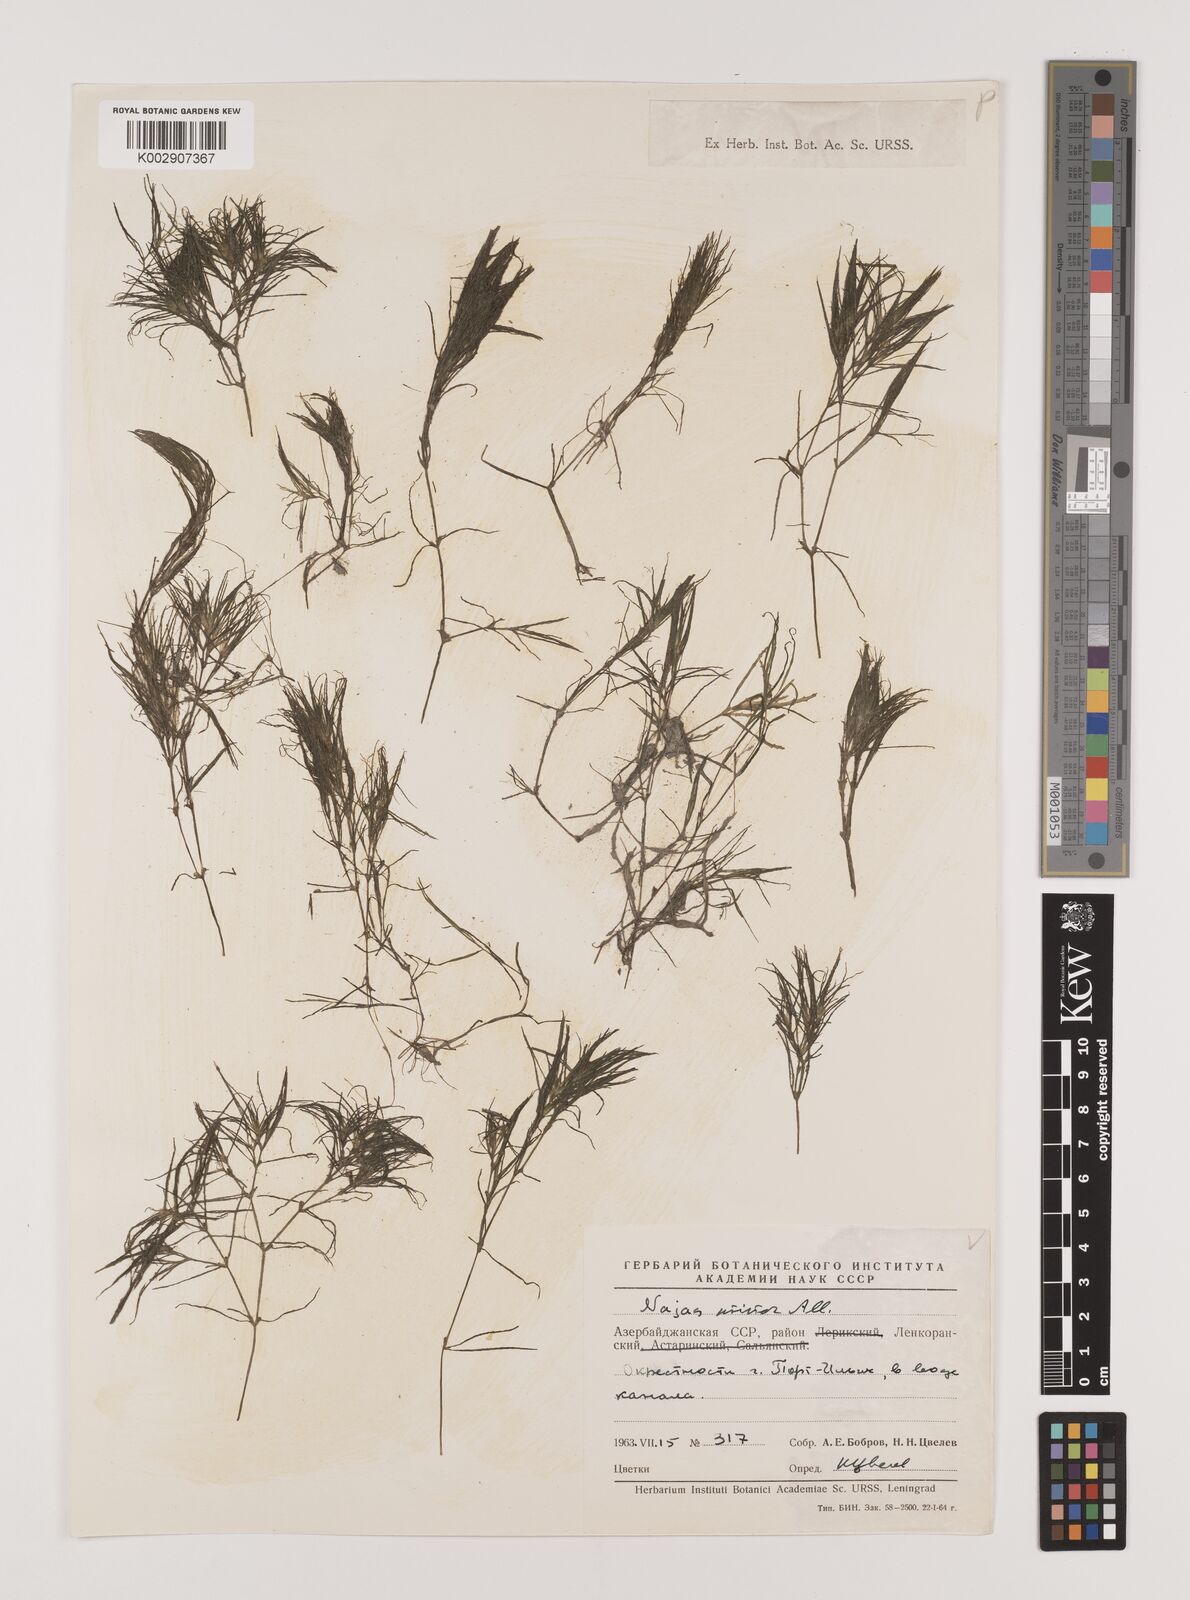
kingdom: Plantae
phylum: Tracheophyta
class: Liliopsida
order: Alismatales
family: Hydrocharitaceae
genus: Najas
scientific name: Najas minor
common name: Brittle naiad
